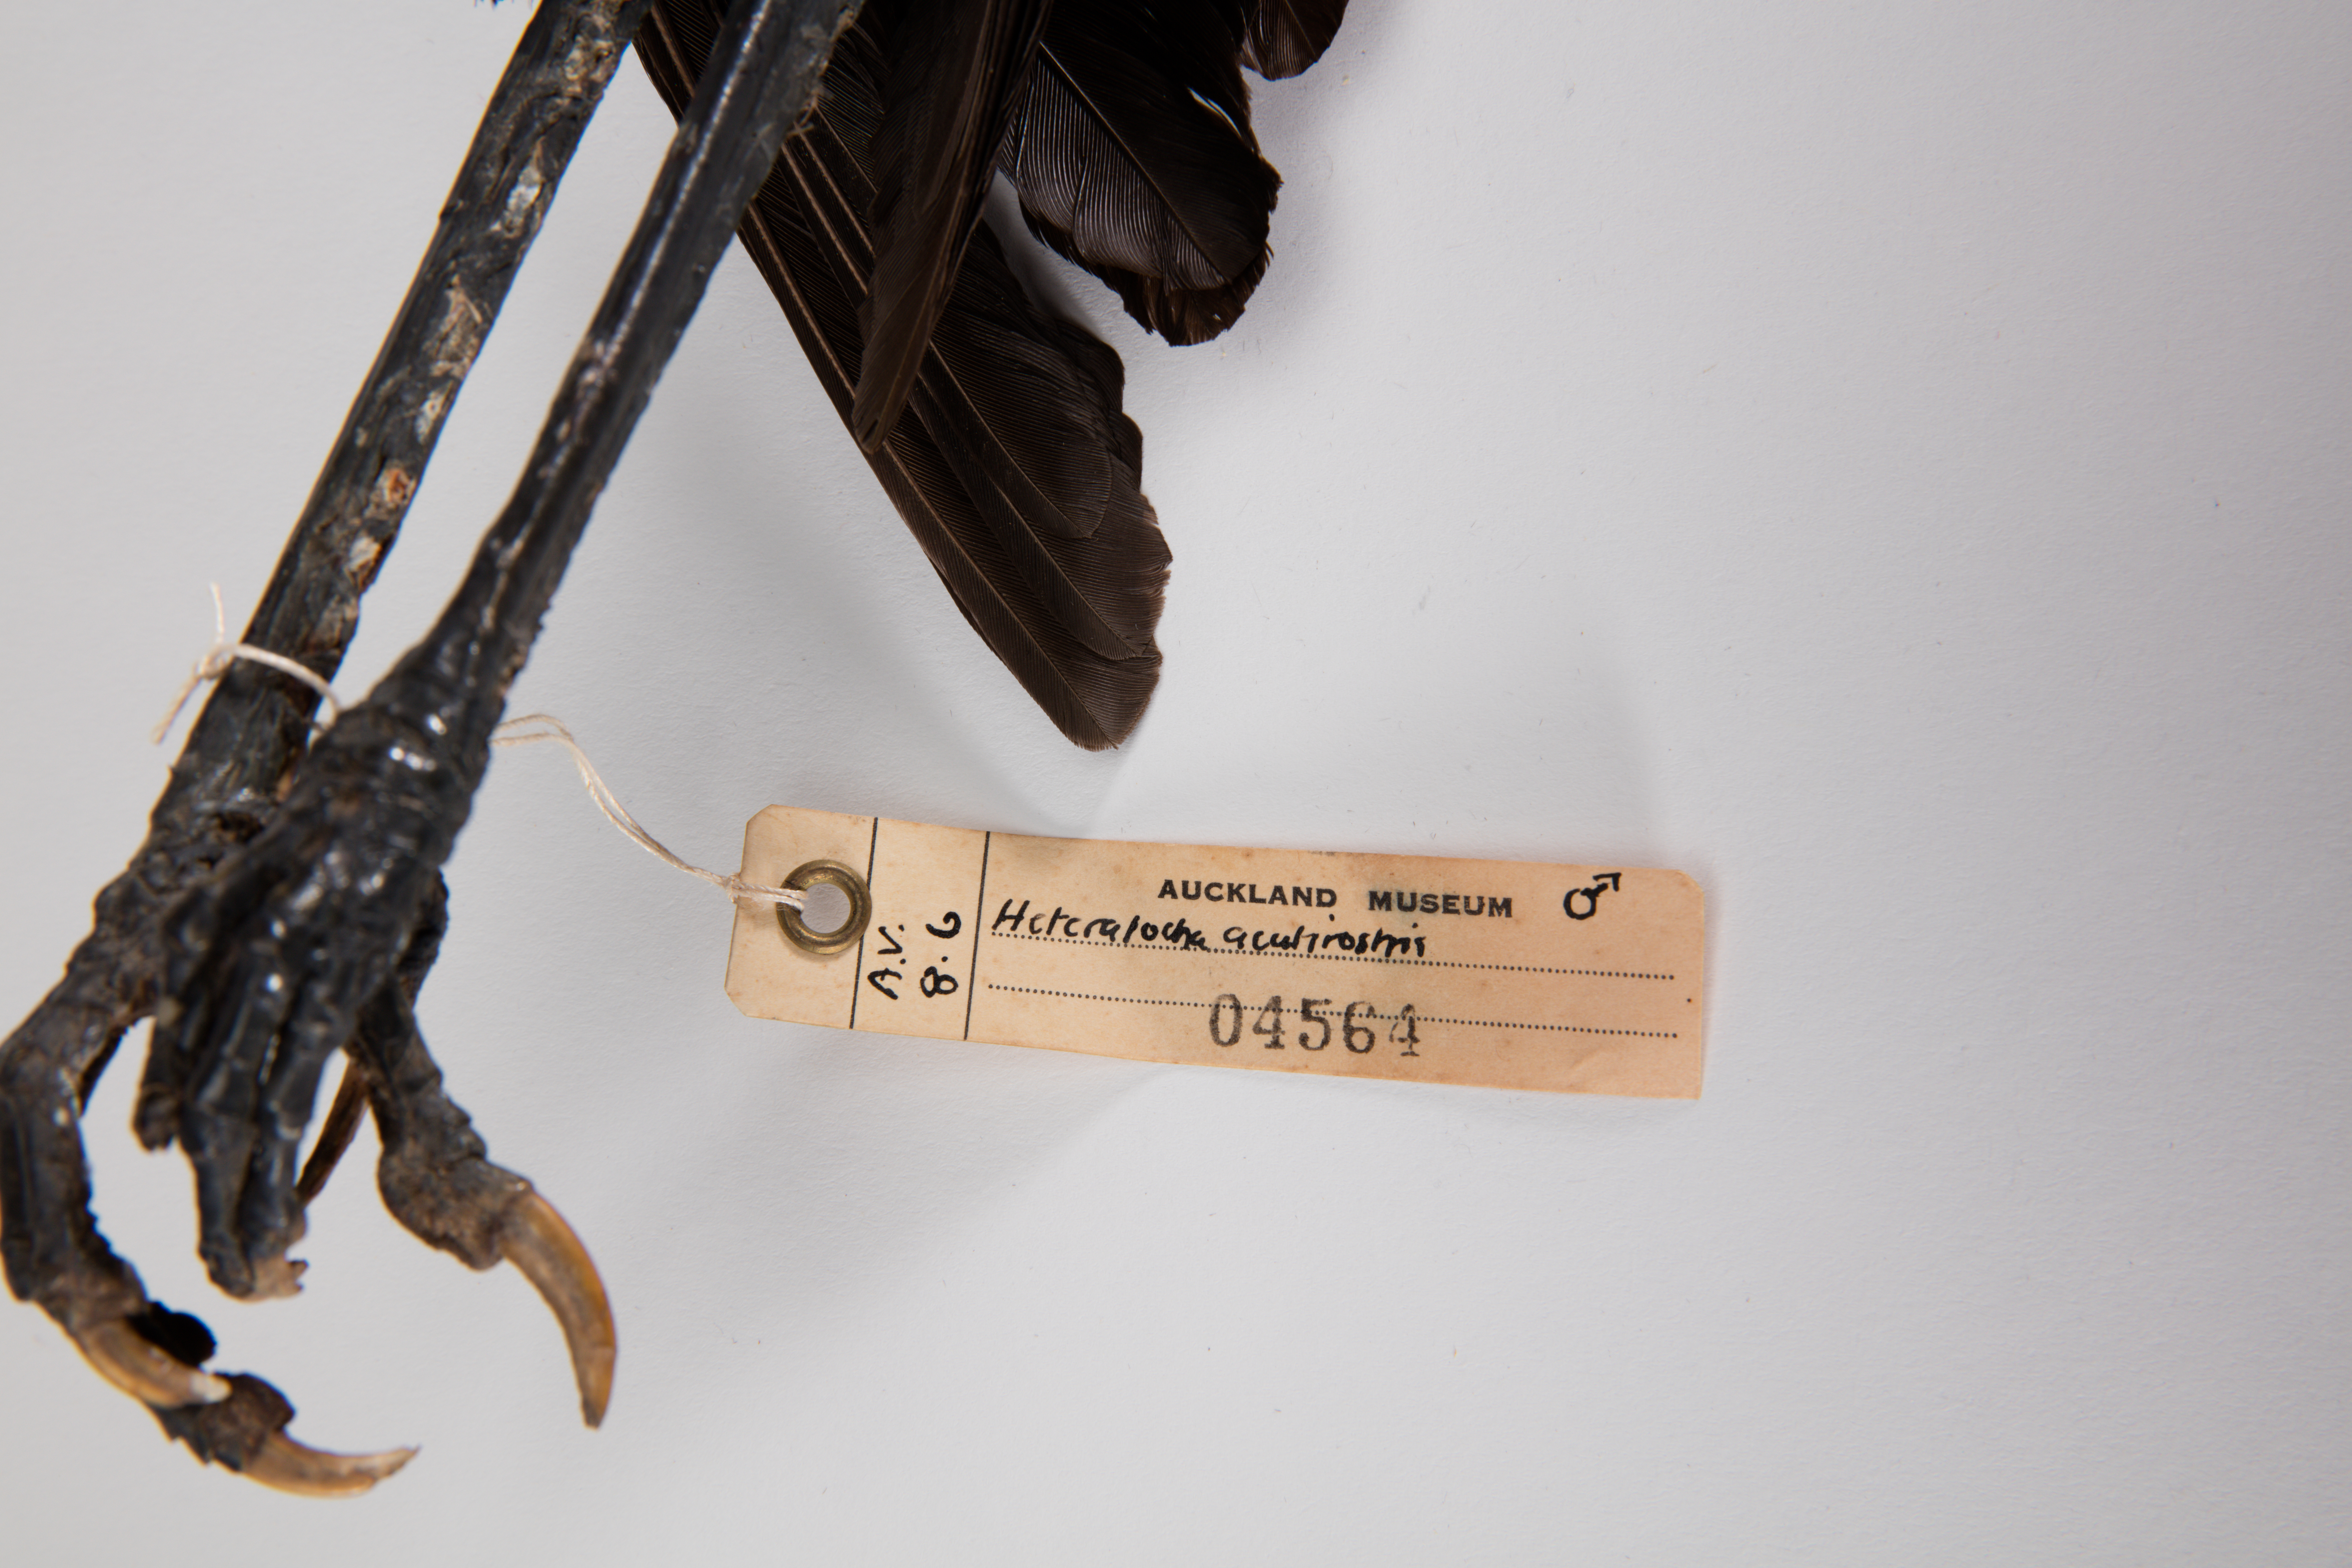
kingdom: Animalia
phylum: Chordata
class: Aves
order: Passeriformes
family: Callaeatidae
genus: Heteralocha
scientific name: Heteralocha acutirostris
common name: Huia
